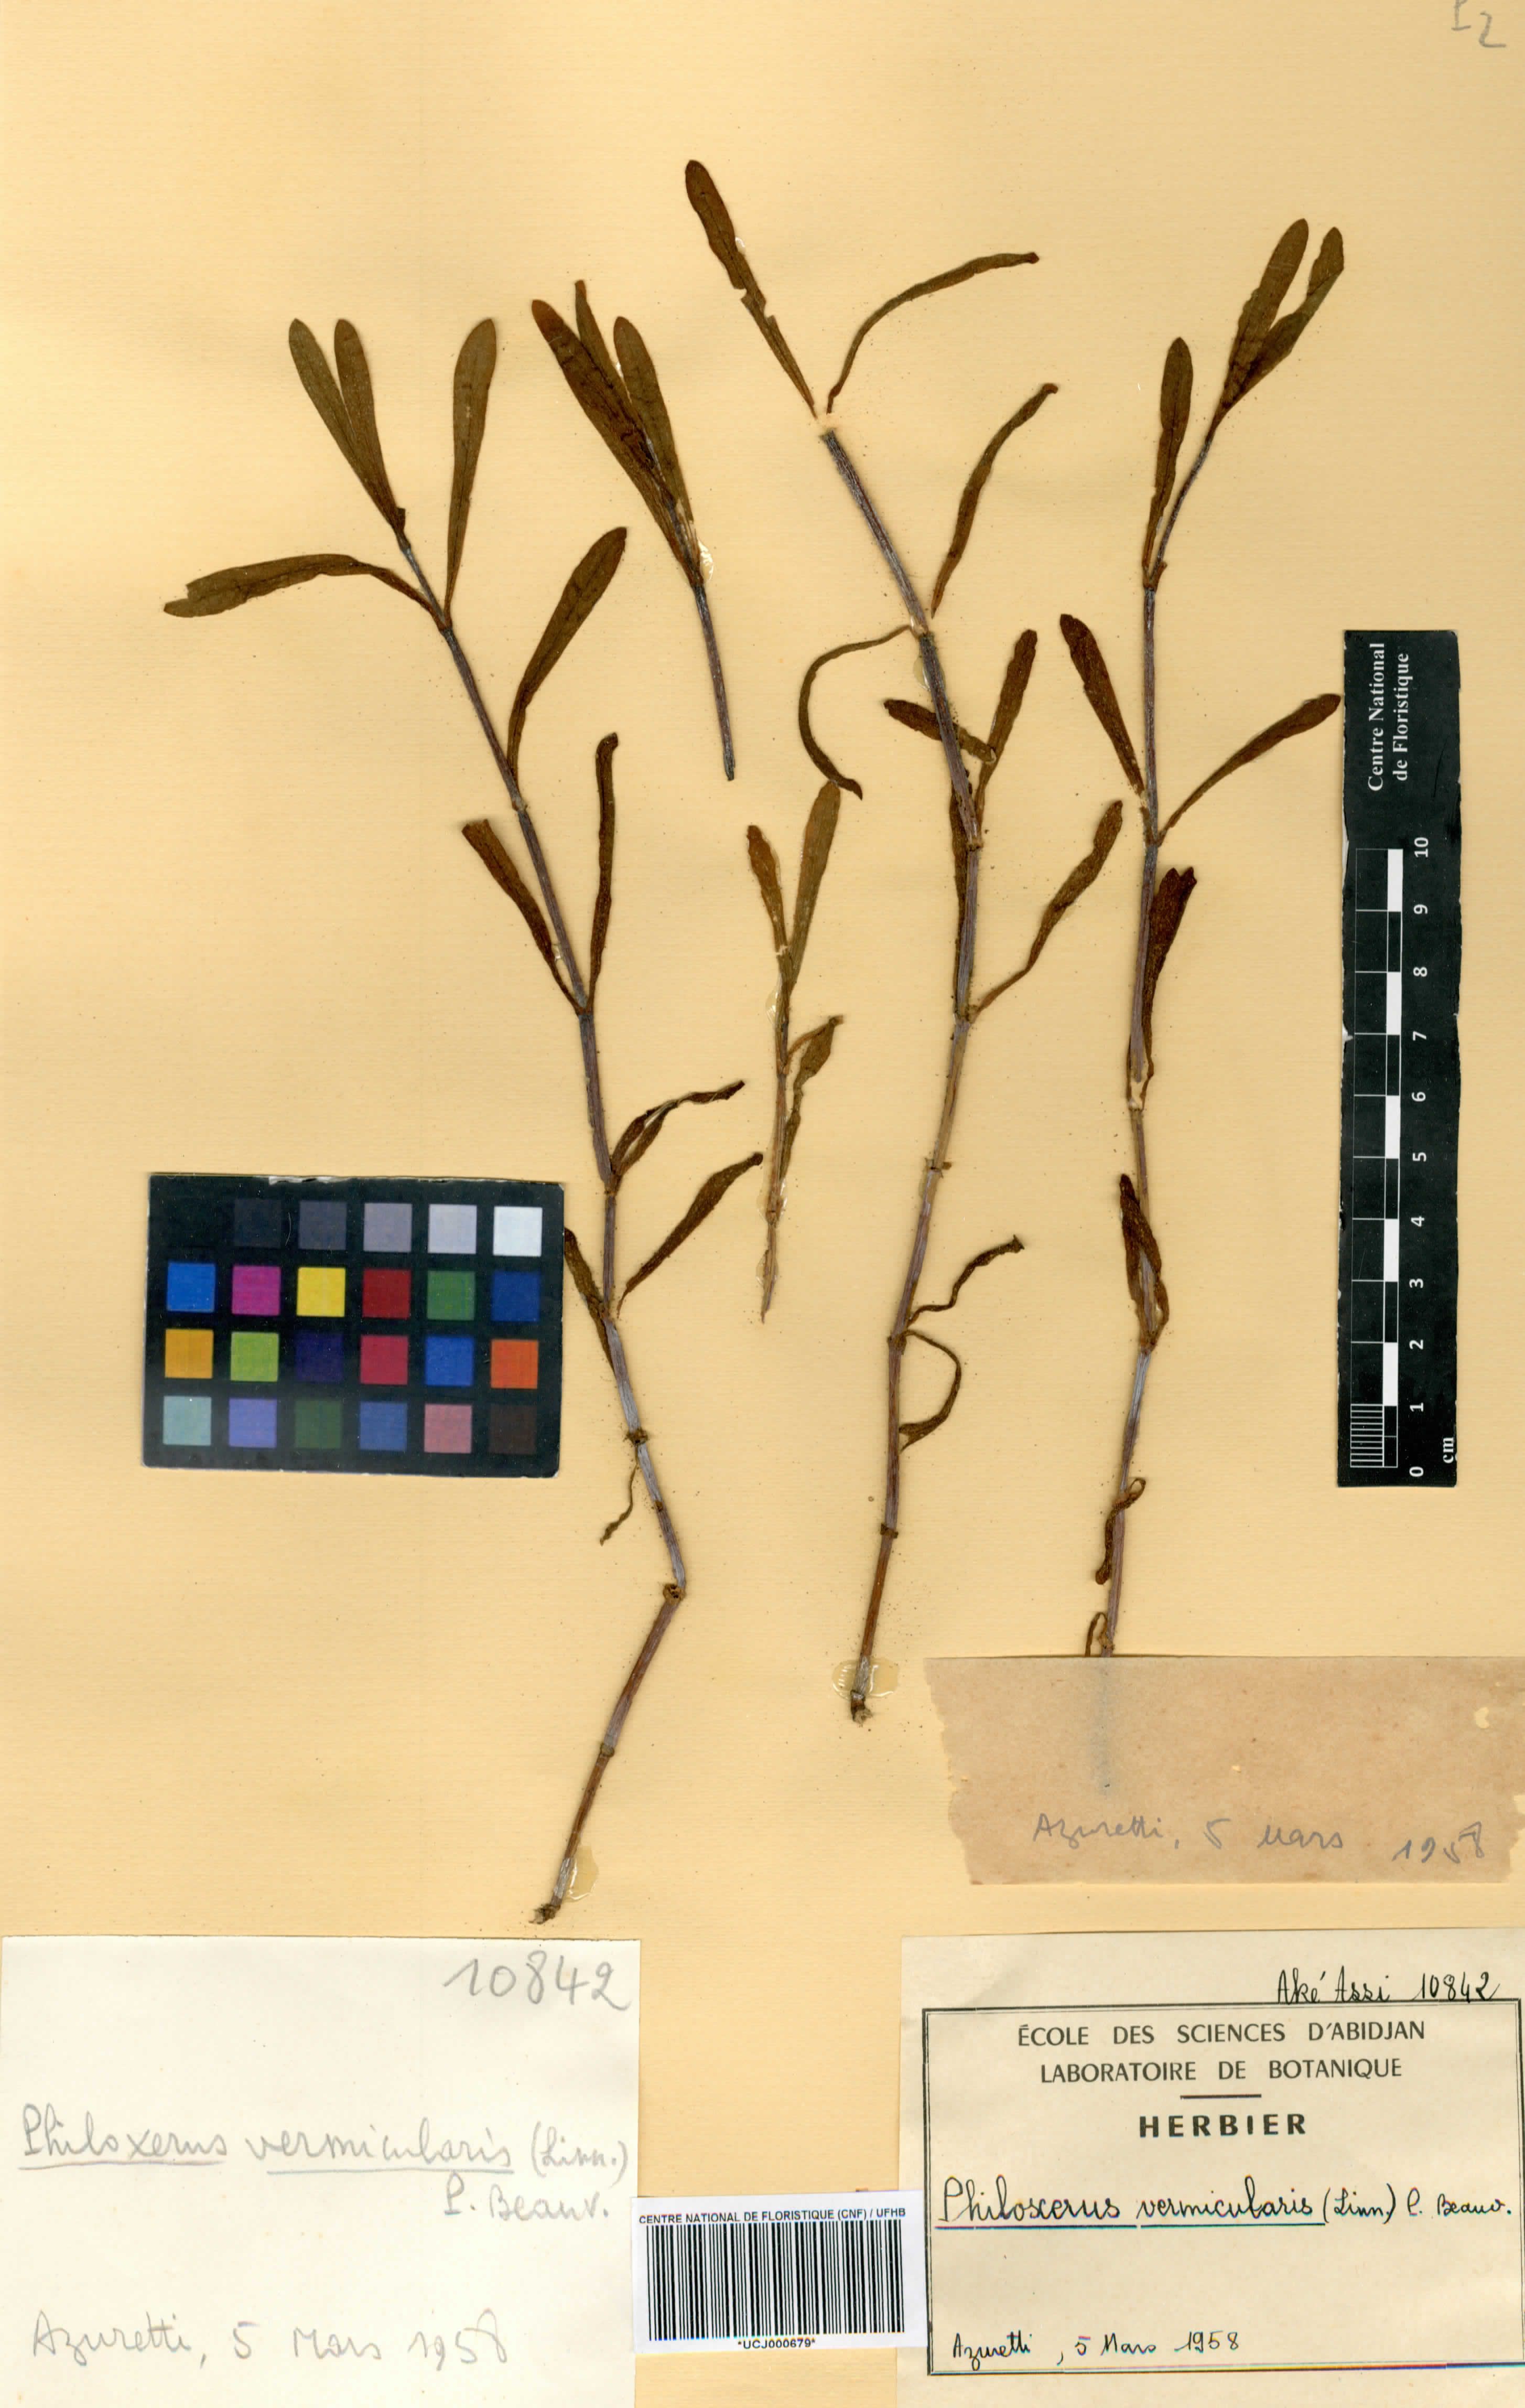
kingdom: Plantae
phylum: Tracheophyta
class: Magnoliopsida
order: Caryophyllales
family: Amaranthaceae
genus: Gomphrena
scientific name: Gomphrena vermicularis
